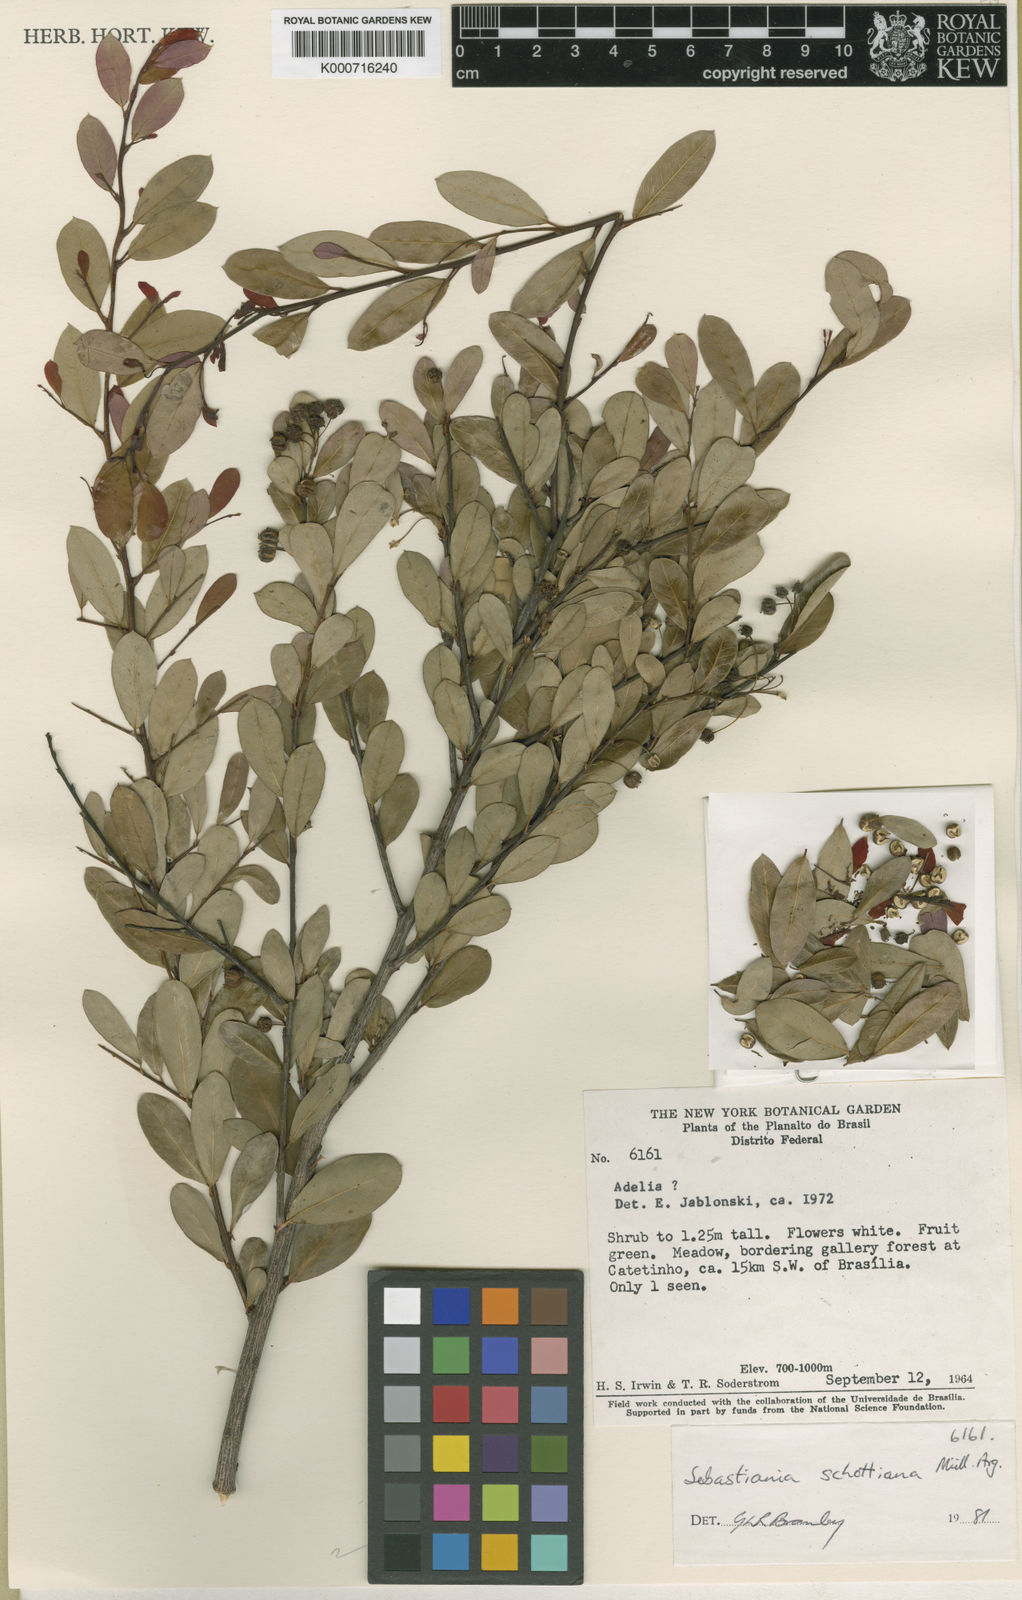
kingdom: Plantae
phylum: Tracheophyta
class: Magnoliopsida
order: Malpighiales
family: Euphorbiaceae
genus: Sebastiania
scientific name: Sebastiania
